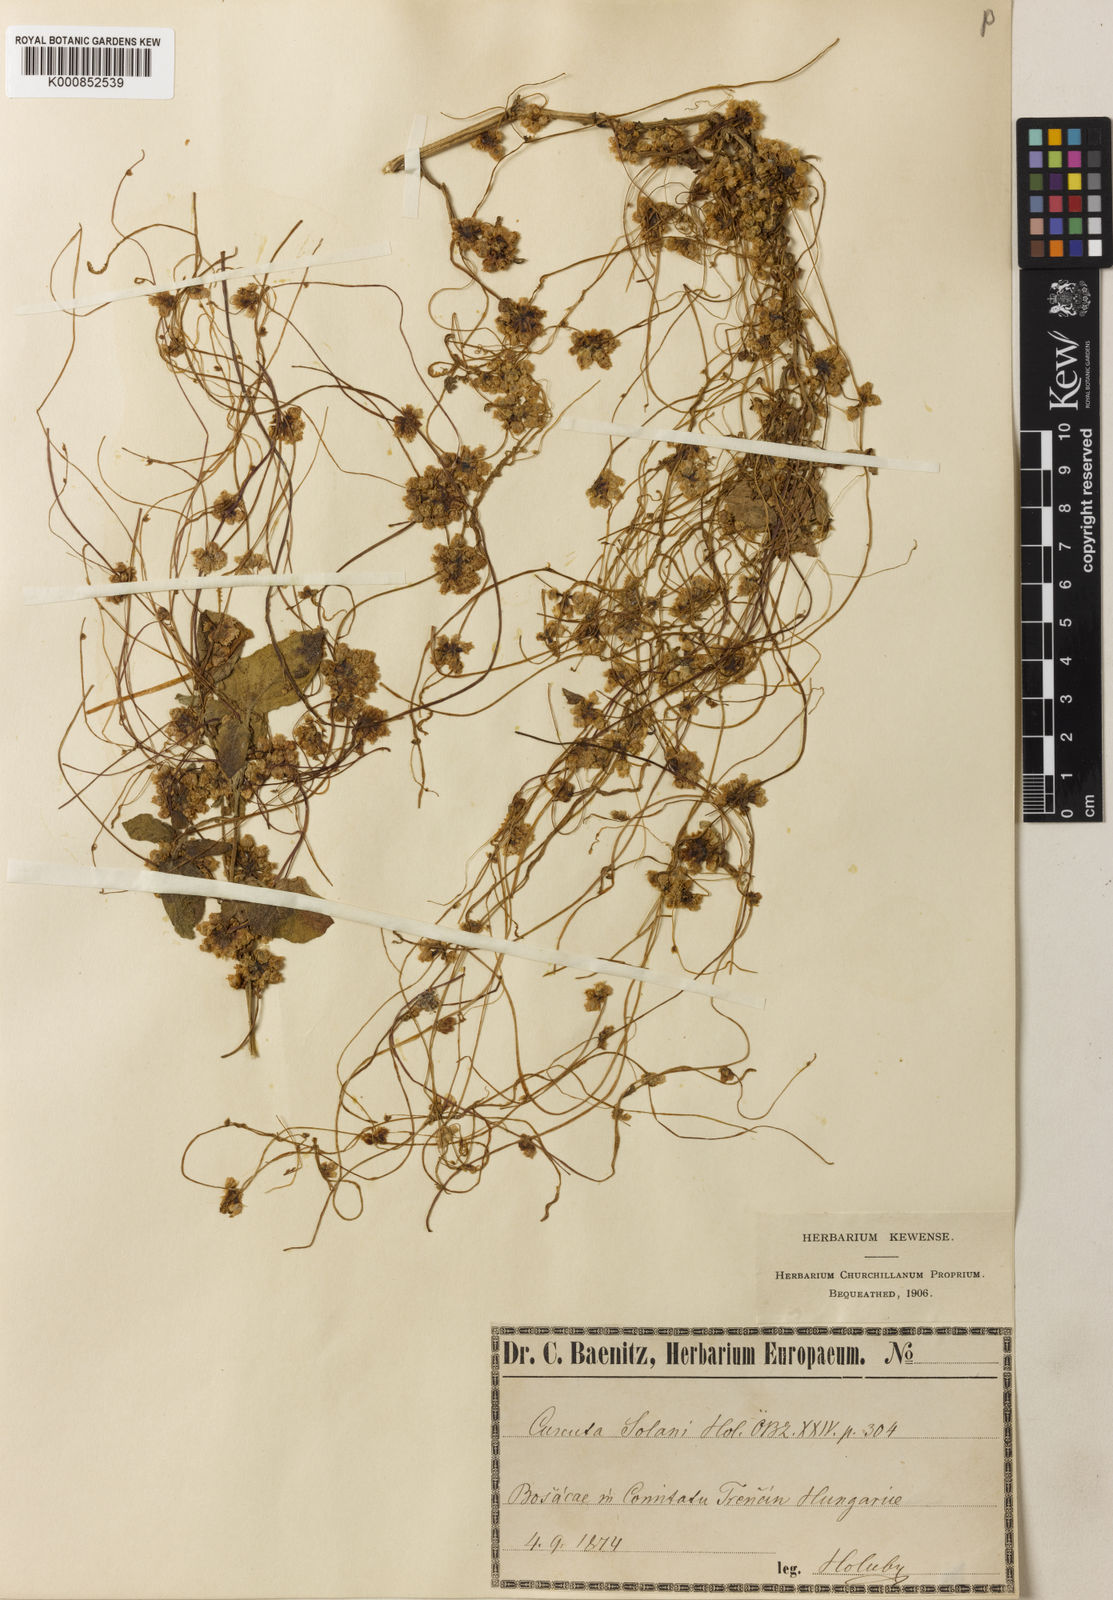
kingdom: Plantae
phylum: Tracheophyta
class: Magnoliopsida
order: Solanales
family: Convolvulaceae
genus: Cuscuta
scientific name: Cuscuta europaea
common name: Greater dodder
